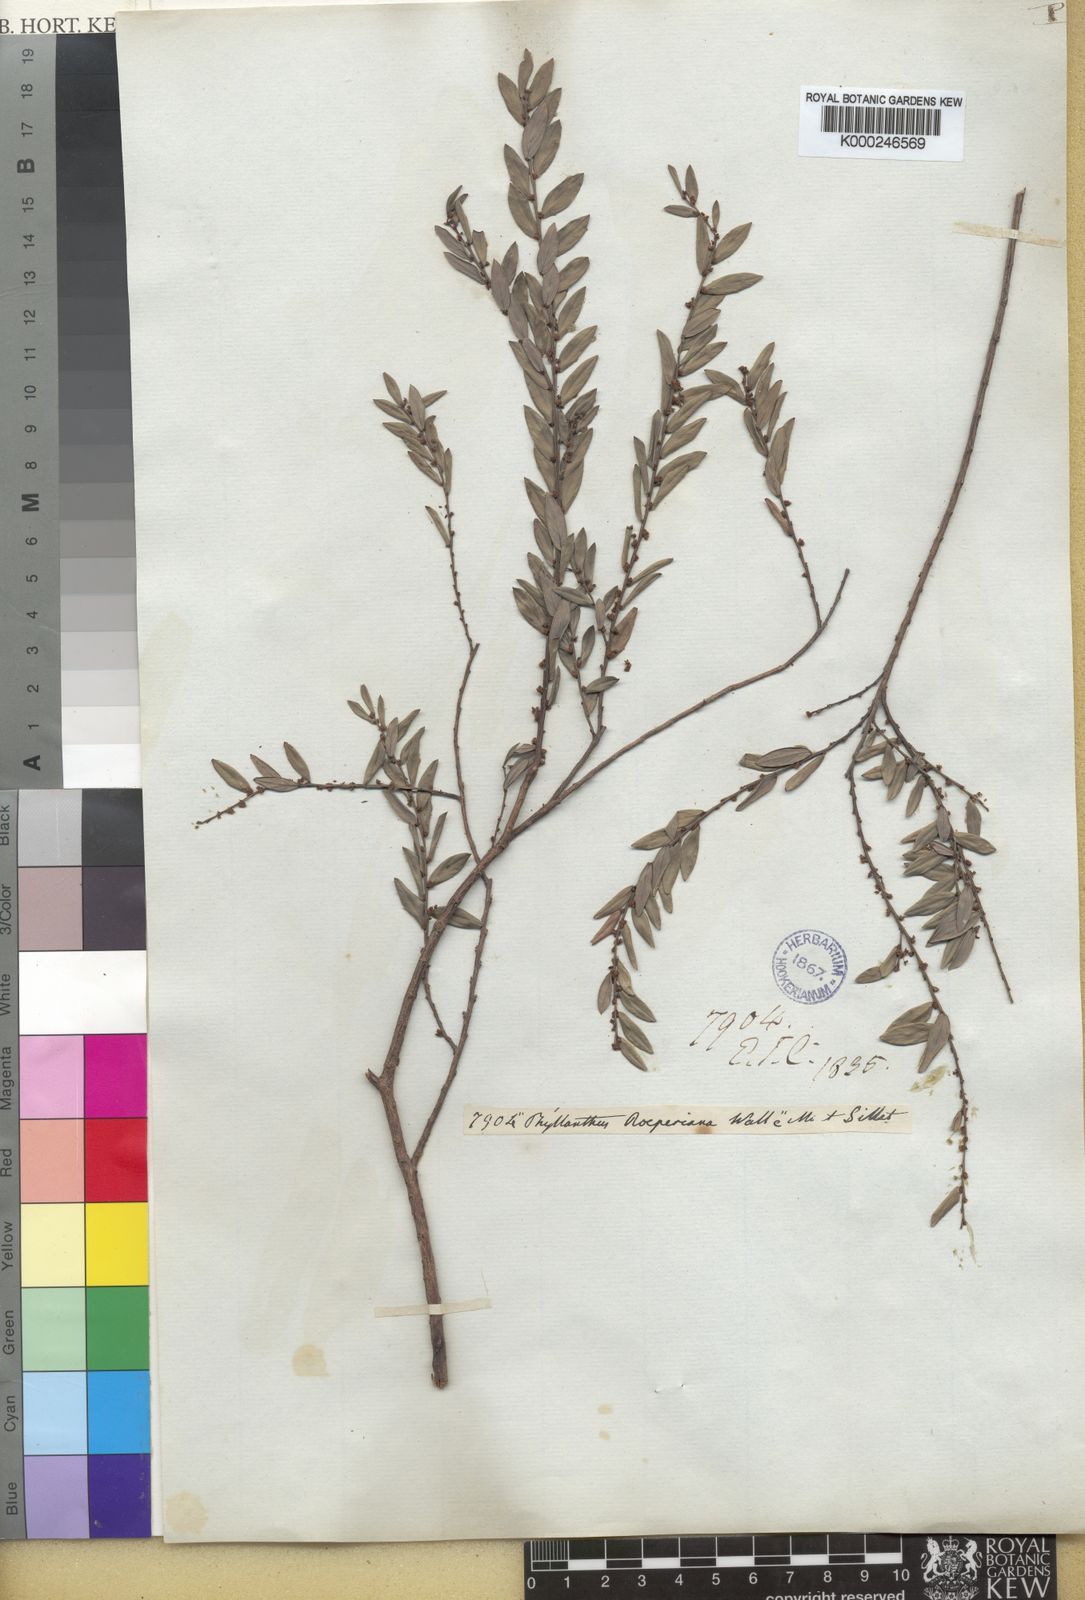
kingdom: Plantae
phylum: Tracheophyta
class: Magnoliopsida
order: Malpighiales
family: Phyllanthaceae
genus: Phyllanthus
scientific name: Phyllanthus cochinchinensis
